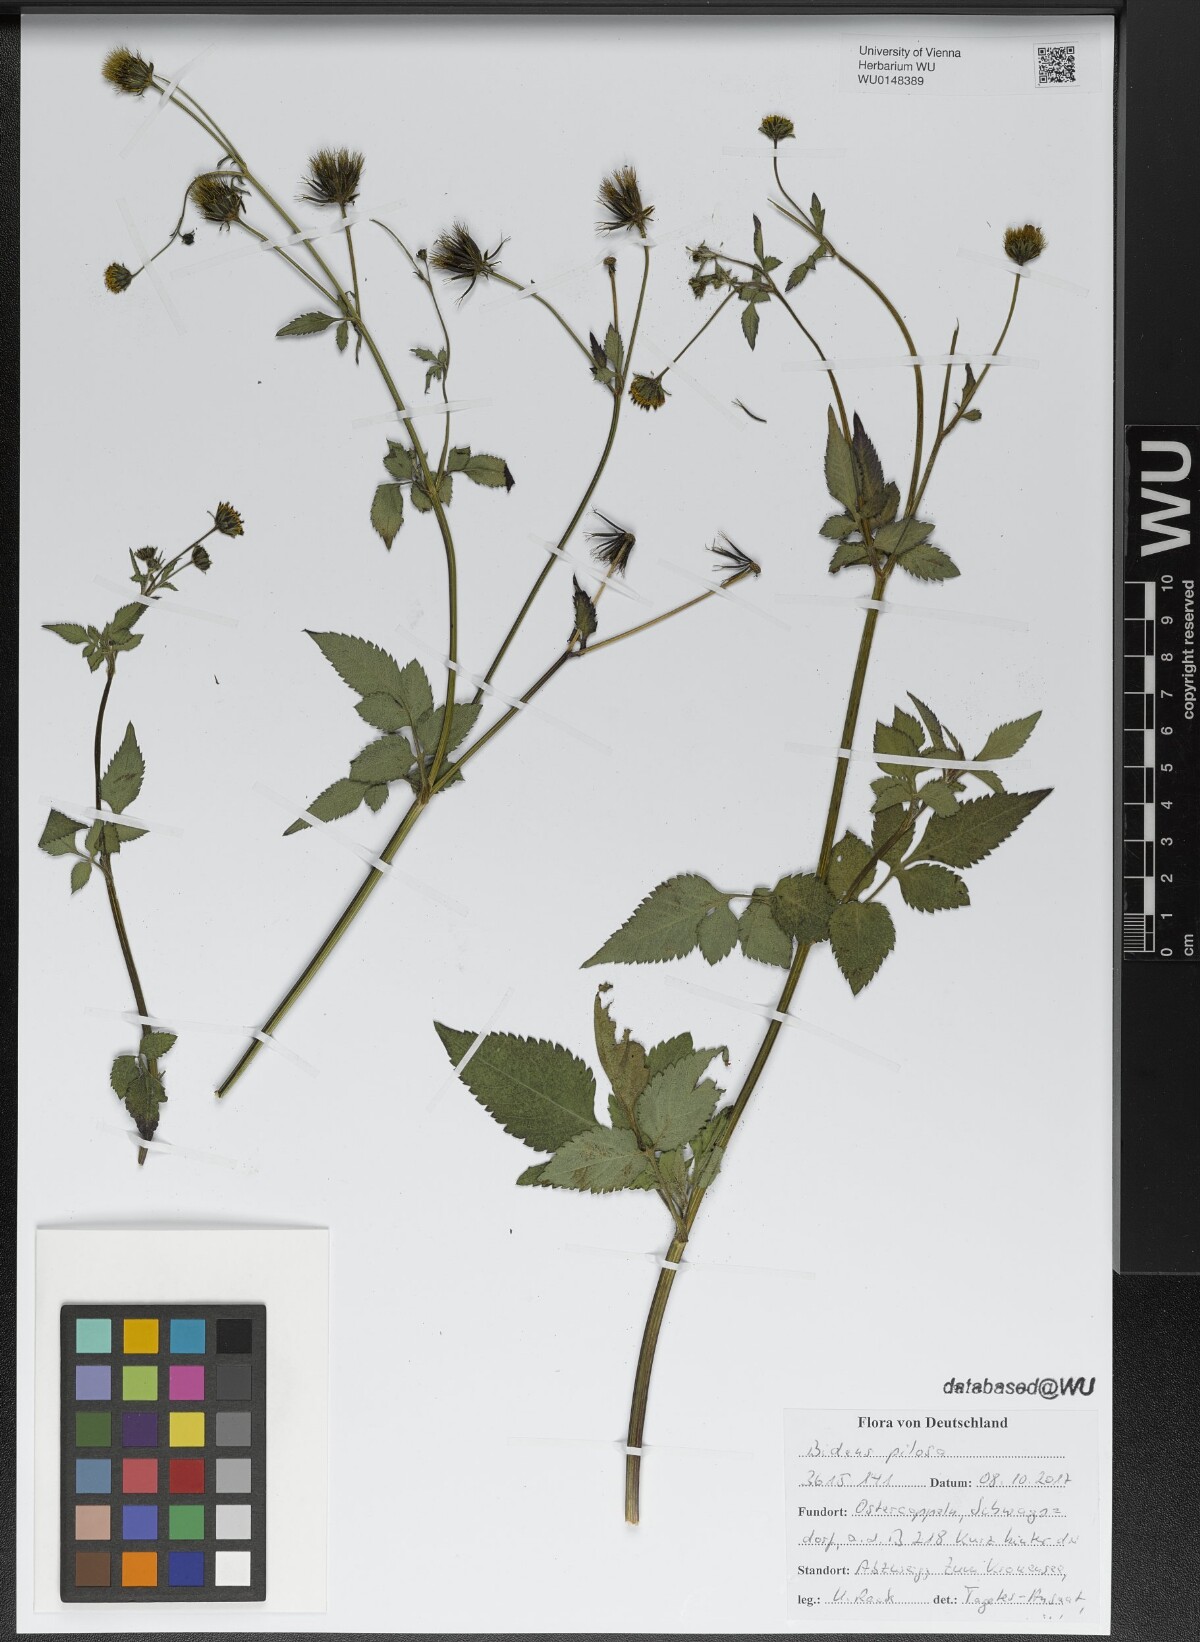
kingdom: Plantae
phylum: Tracheophyta
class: Magnoliopsida
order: Asterales
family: Asteraceae
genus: Bidens
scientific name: Bidens pilosa
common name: Black-jack
